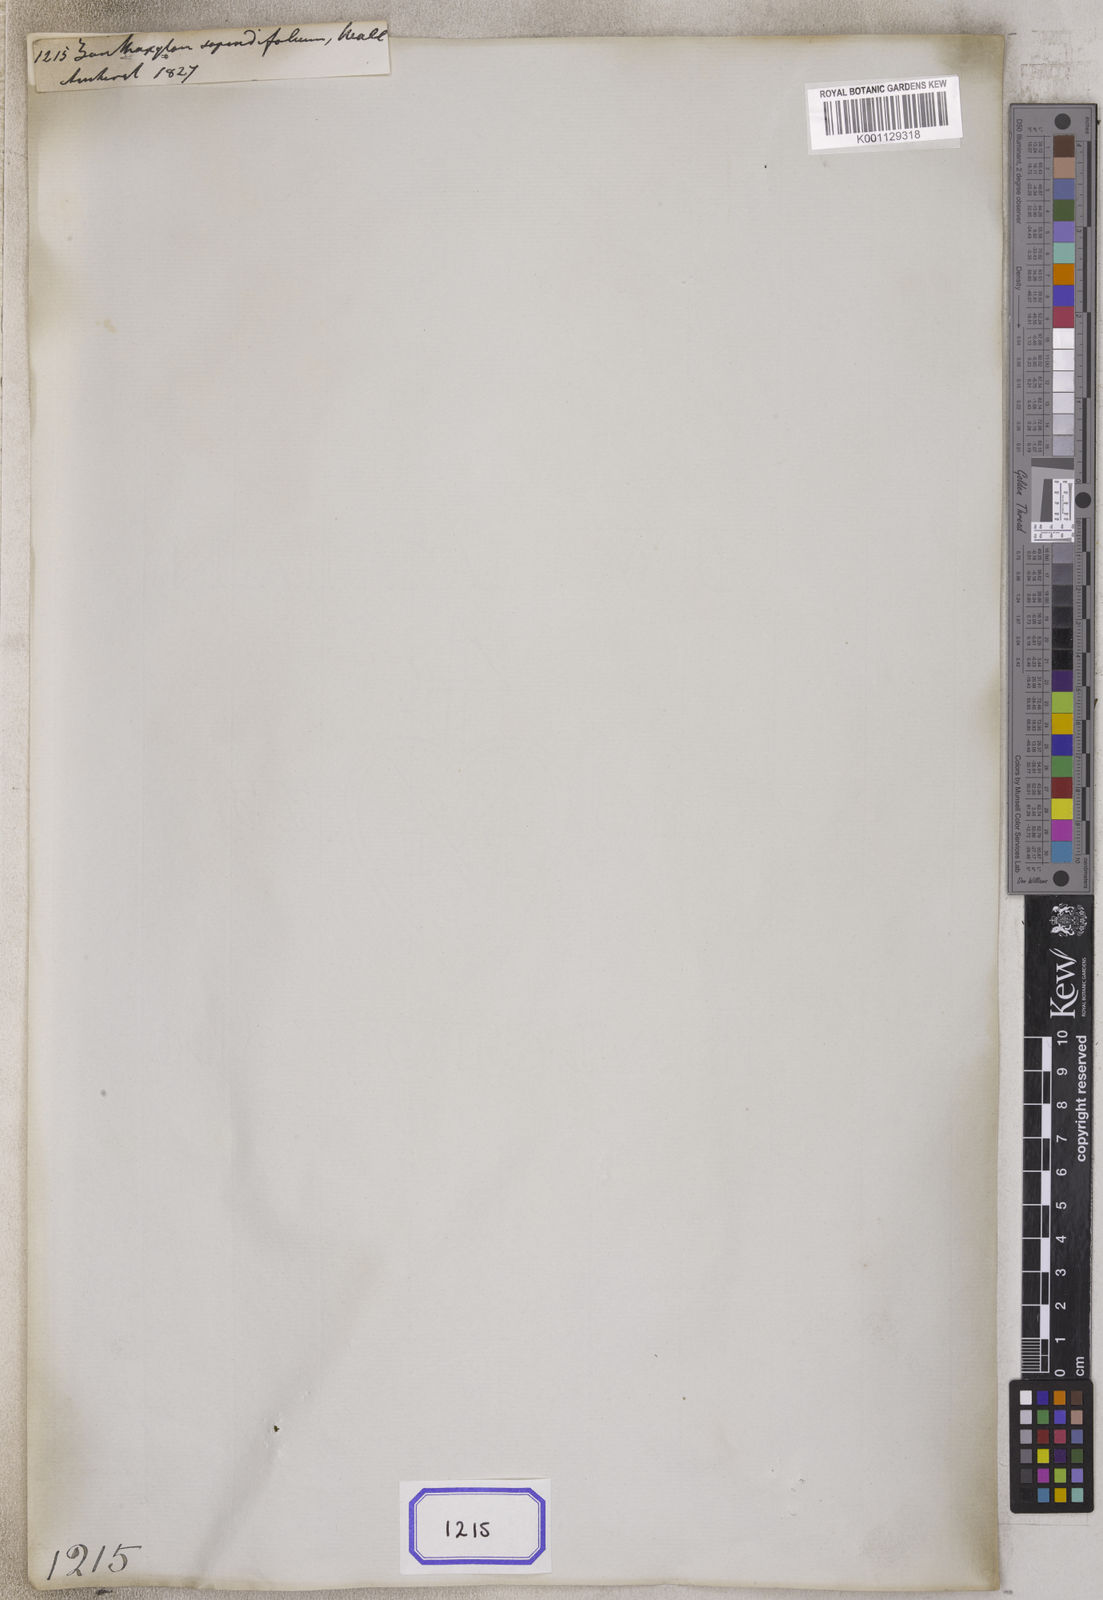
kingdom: Plantae
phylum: Tracheophyta
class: Magnoliopsida
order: Sapindales
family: Rutaceae
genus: Zanthoxylum
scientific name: Zanthoxylum sapindifolium
